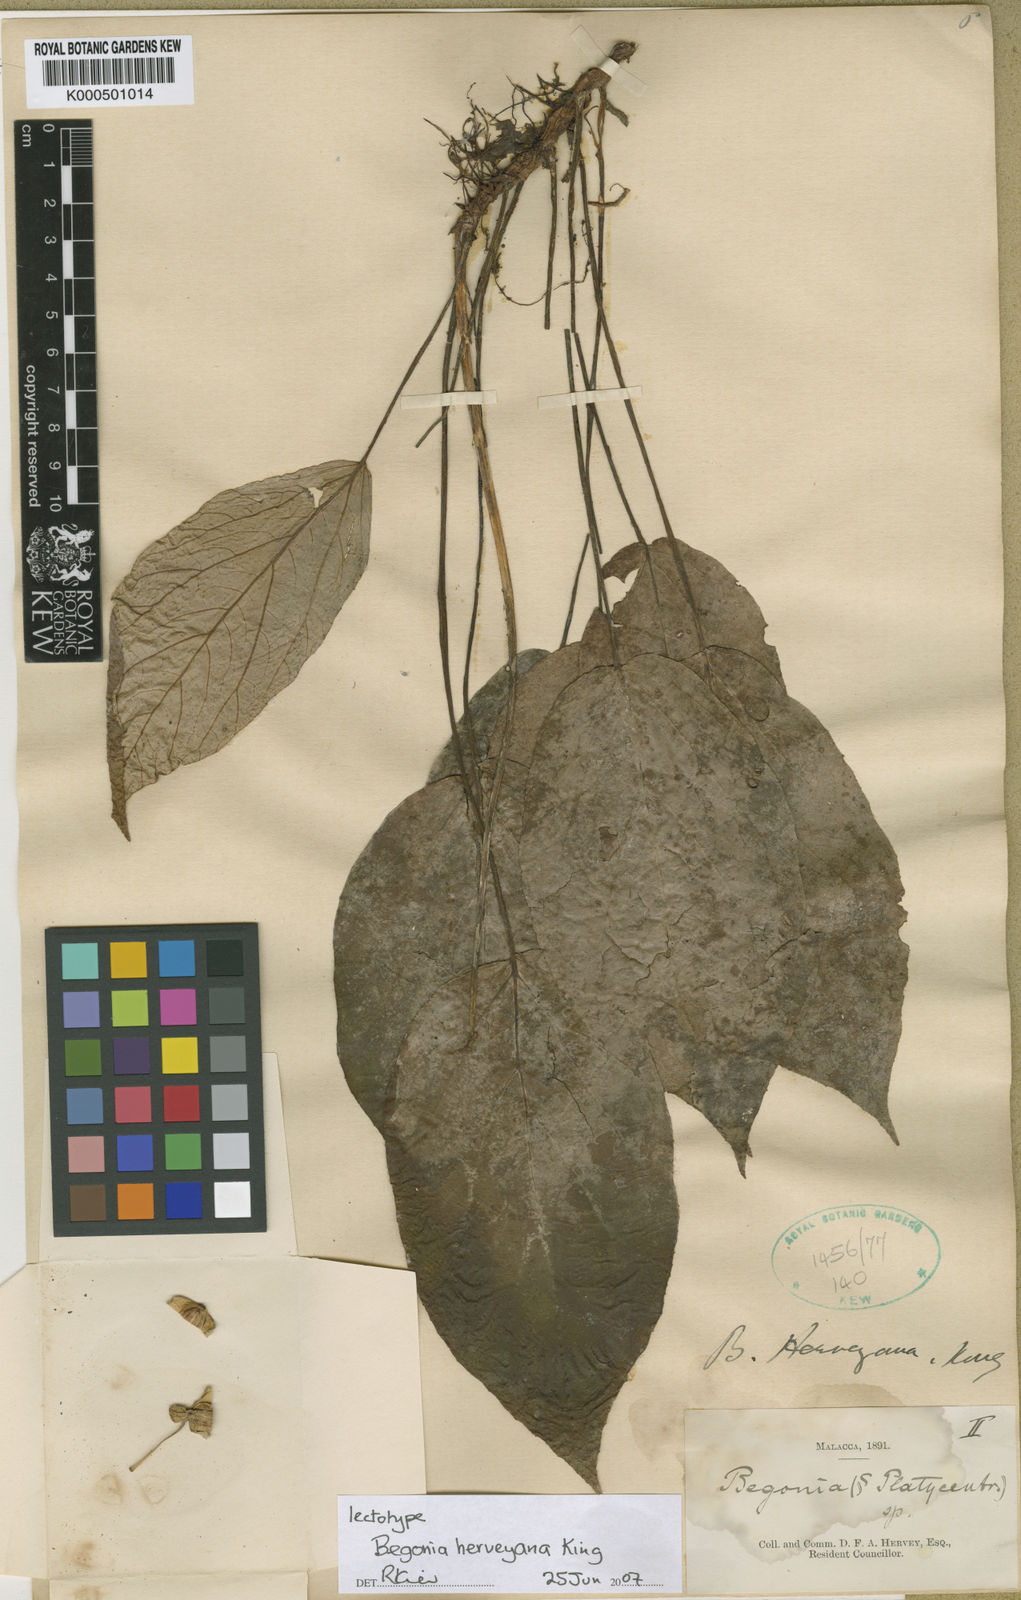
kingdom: Plantae
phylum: Tracheophyta
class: Magnoliopsida
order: Cucurbitales
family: Begoniaceae
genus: Begonia
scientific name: Begonia herveyana
